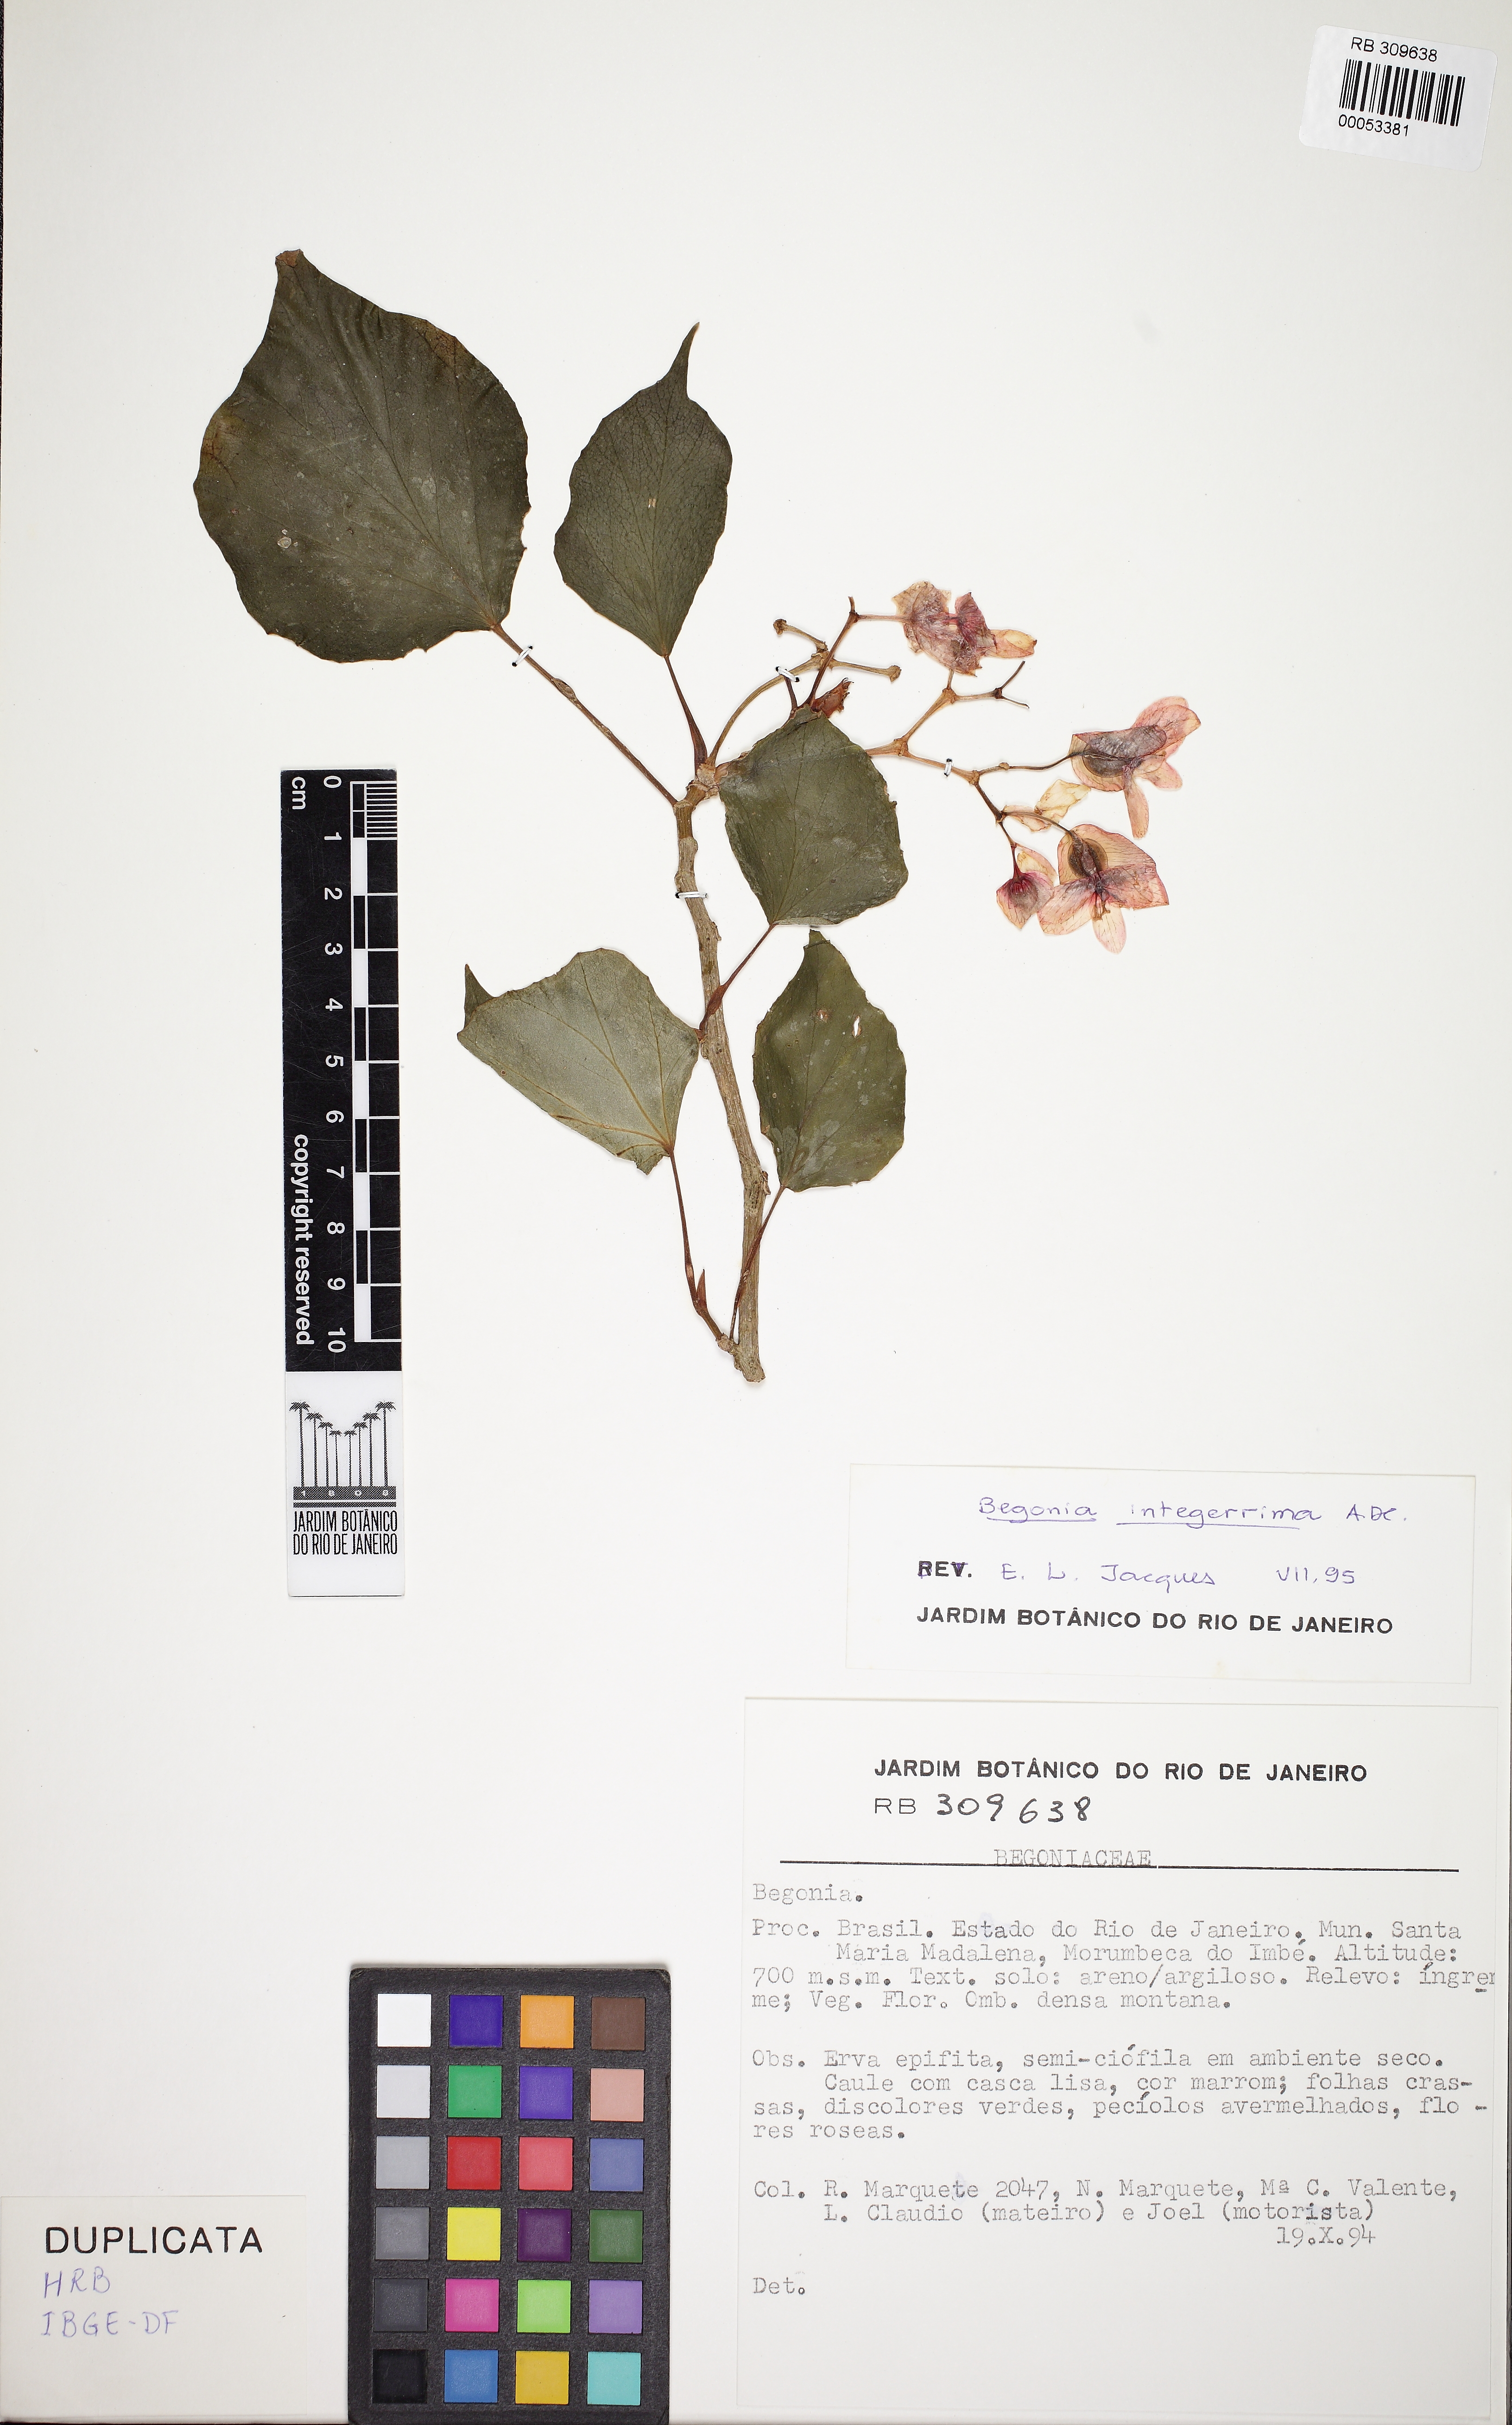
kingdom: Plantae
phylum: Tracheophyta
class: Magnoliopsida
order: Cucurbitales
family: Begoniaceae
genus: Begonia
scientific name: Begonia integerrima
